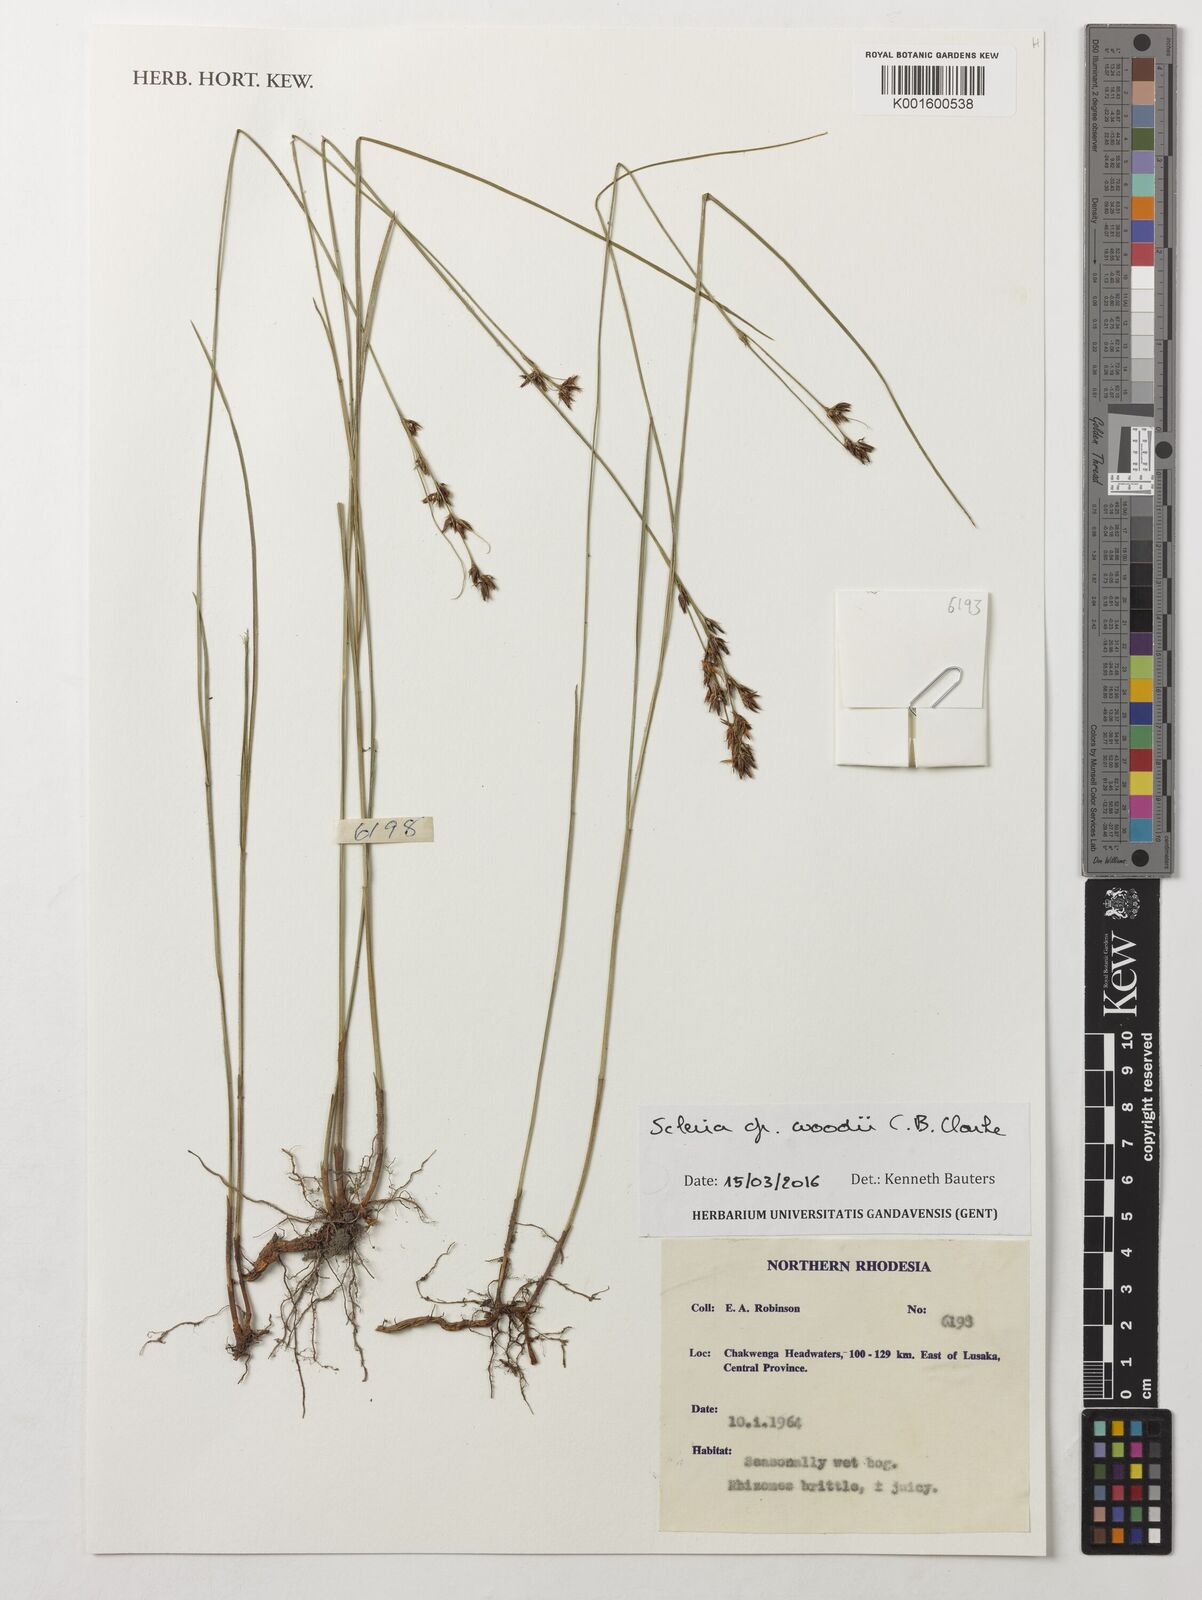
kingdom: Plantae
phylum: Tracheophyta
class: Liliopsida
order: Poales
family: Cyperaceae
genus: Scleria
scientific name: Scleria woodii
